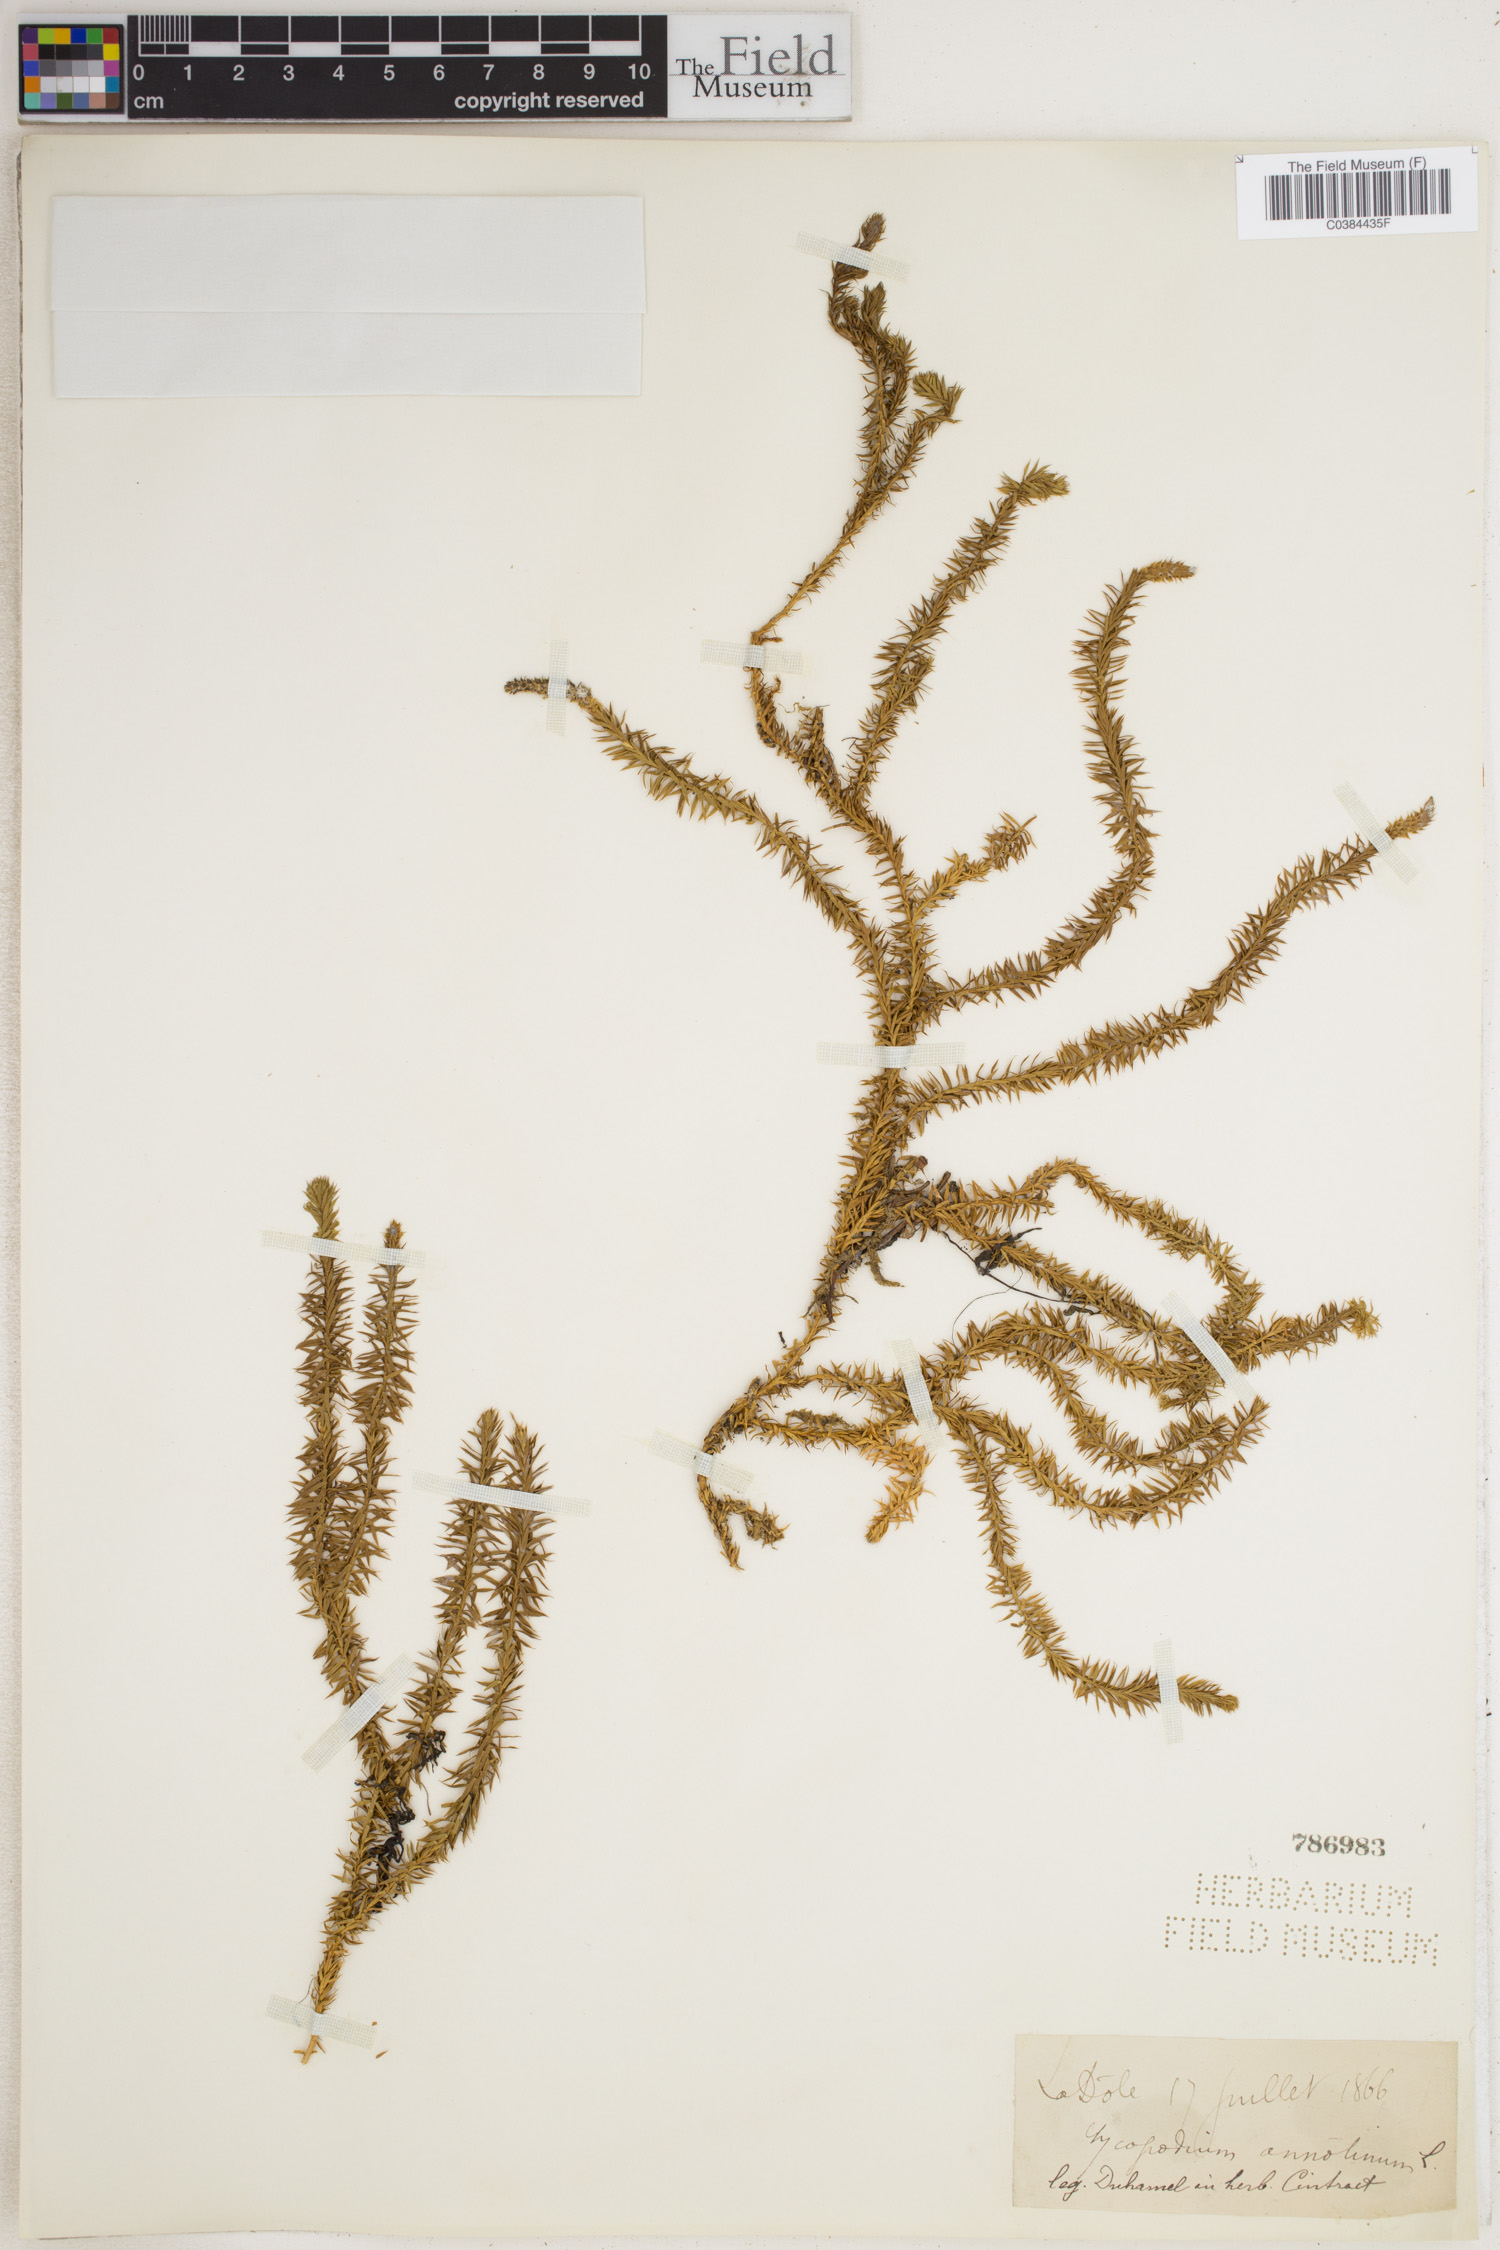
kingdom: Plantae
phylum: Tracheophyta
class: Lycopodiopsida
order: Lycopodiales
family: Lycopodiaceae
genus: Spinulum
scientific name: Spinulum annotinum
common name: Interrupted club-moss
